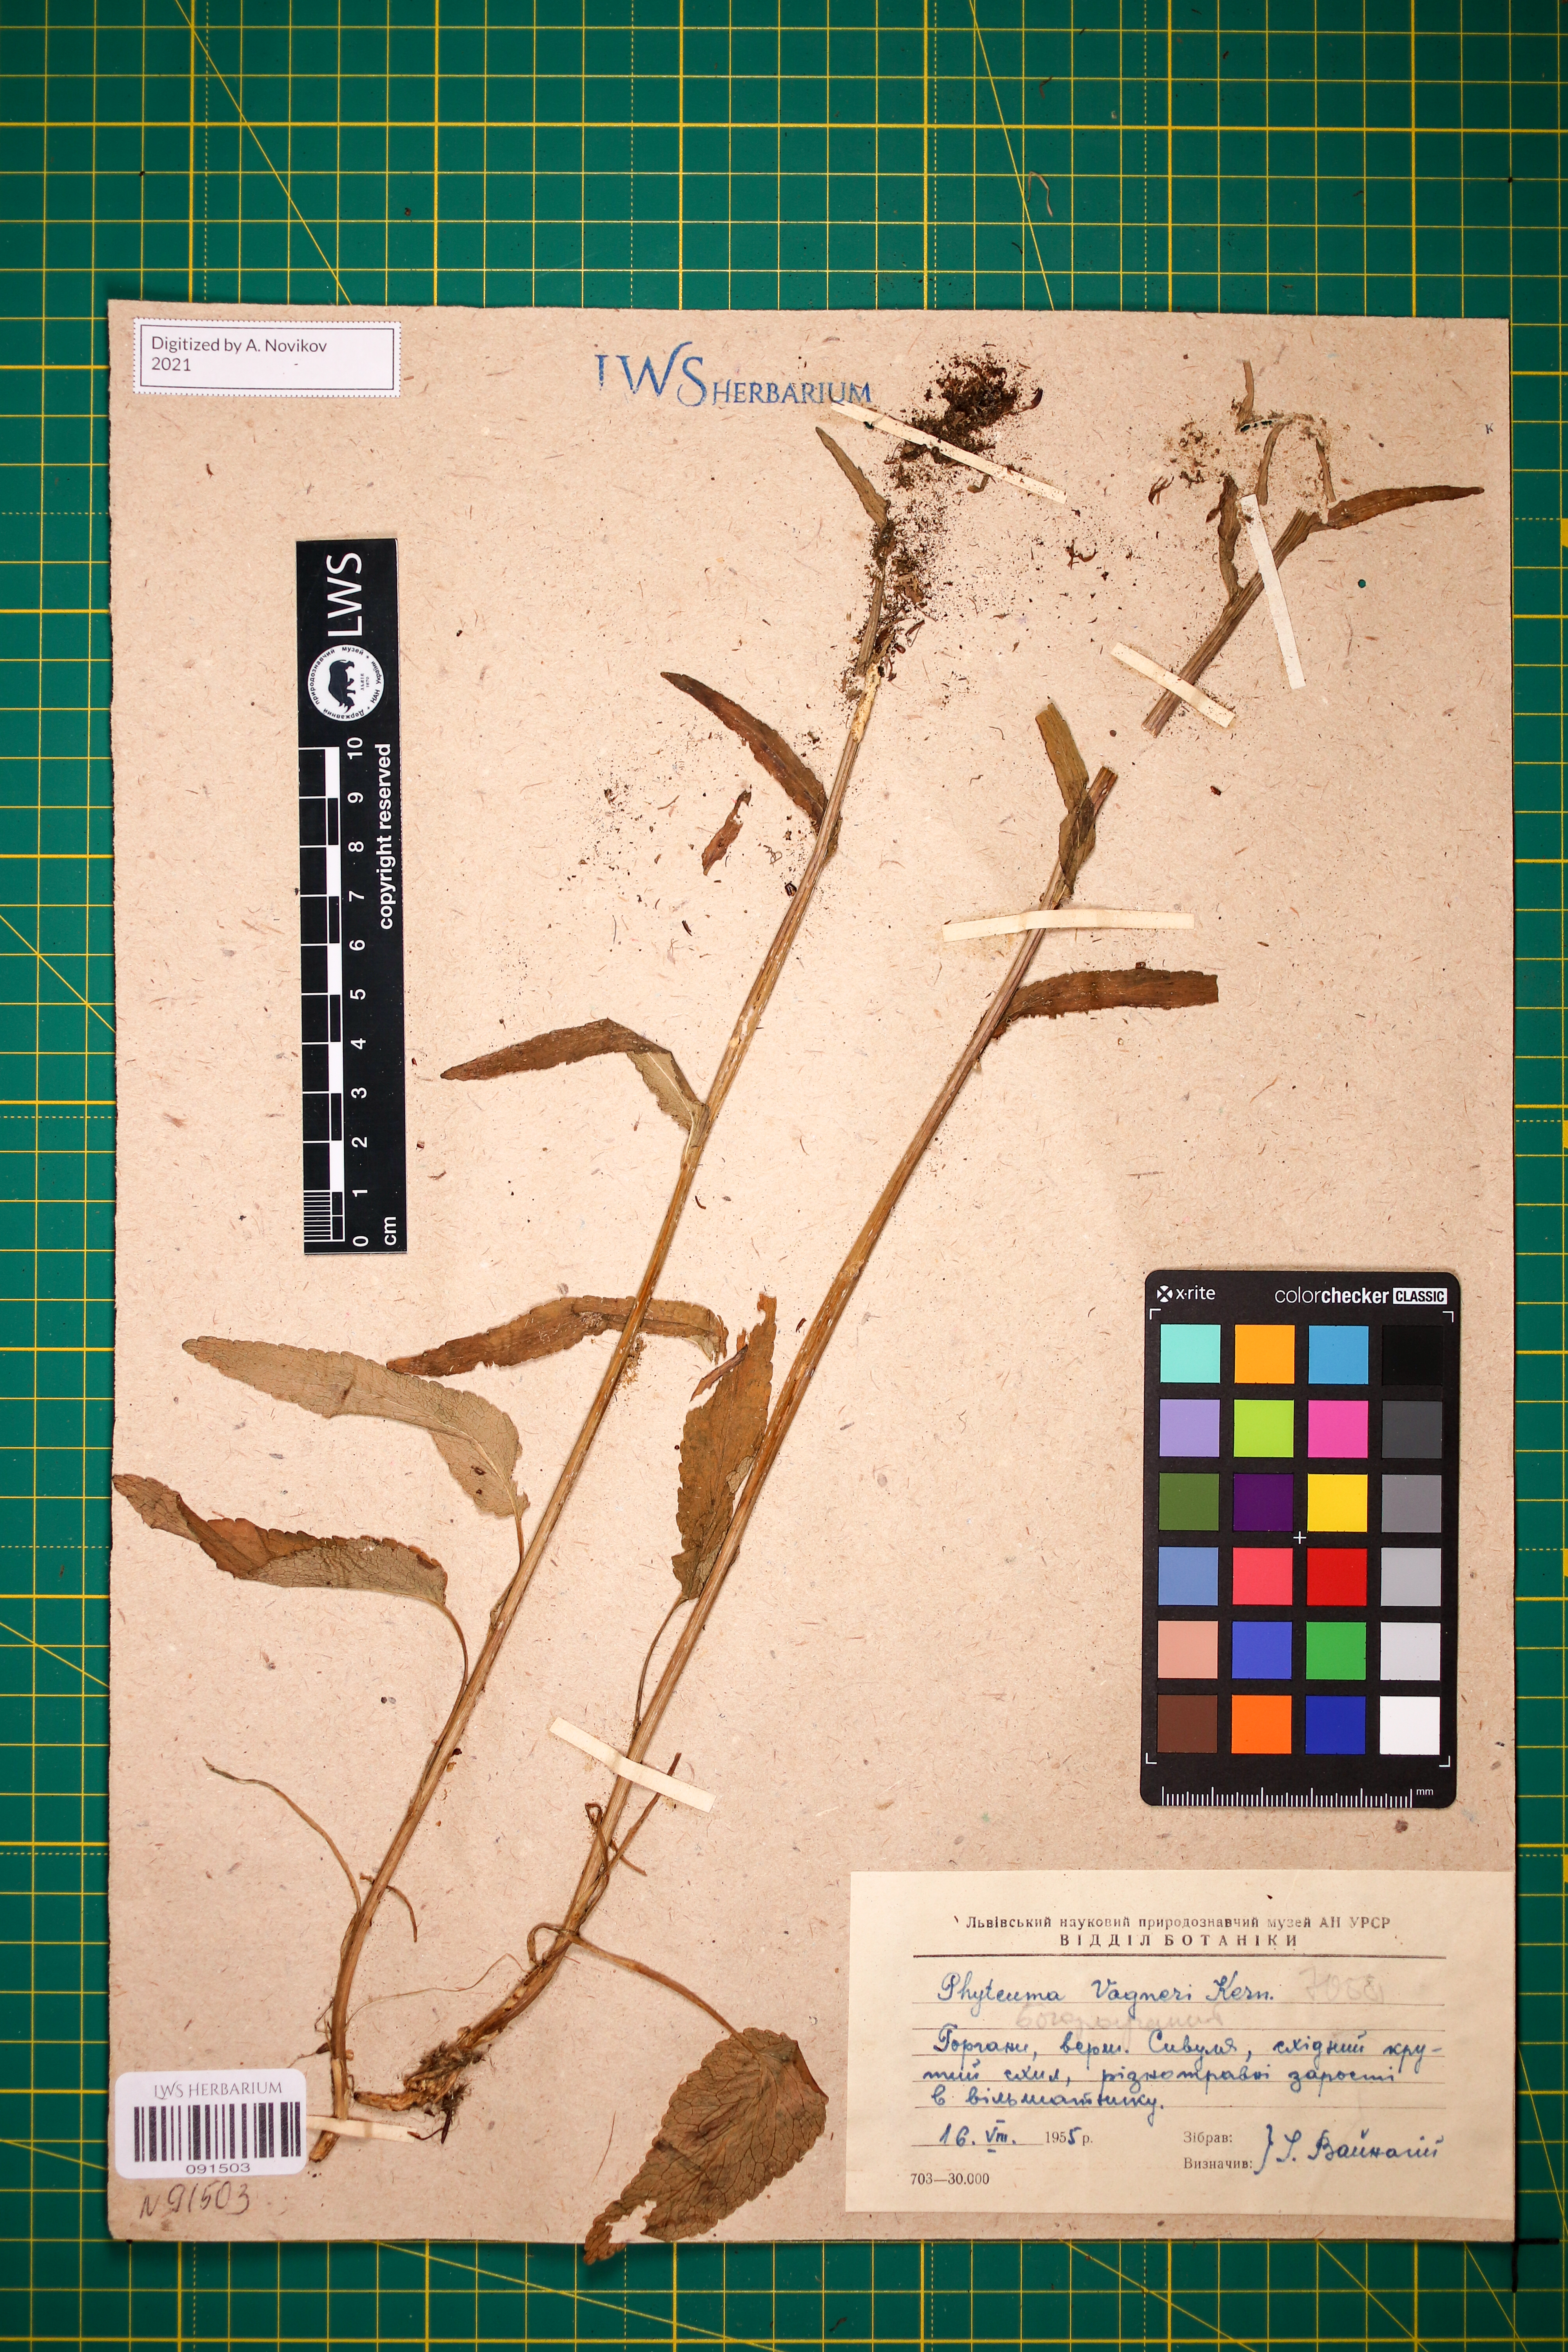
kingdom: Plantae
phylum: Tracheophyta
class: Magnoliopsida
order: Asterales
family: Campanulaceae
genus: Phyteuma
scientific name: Phyteuma vagneri
